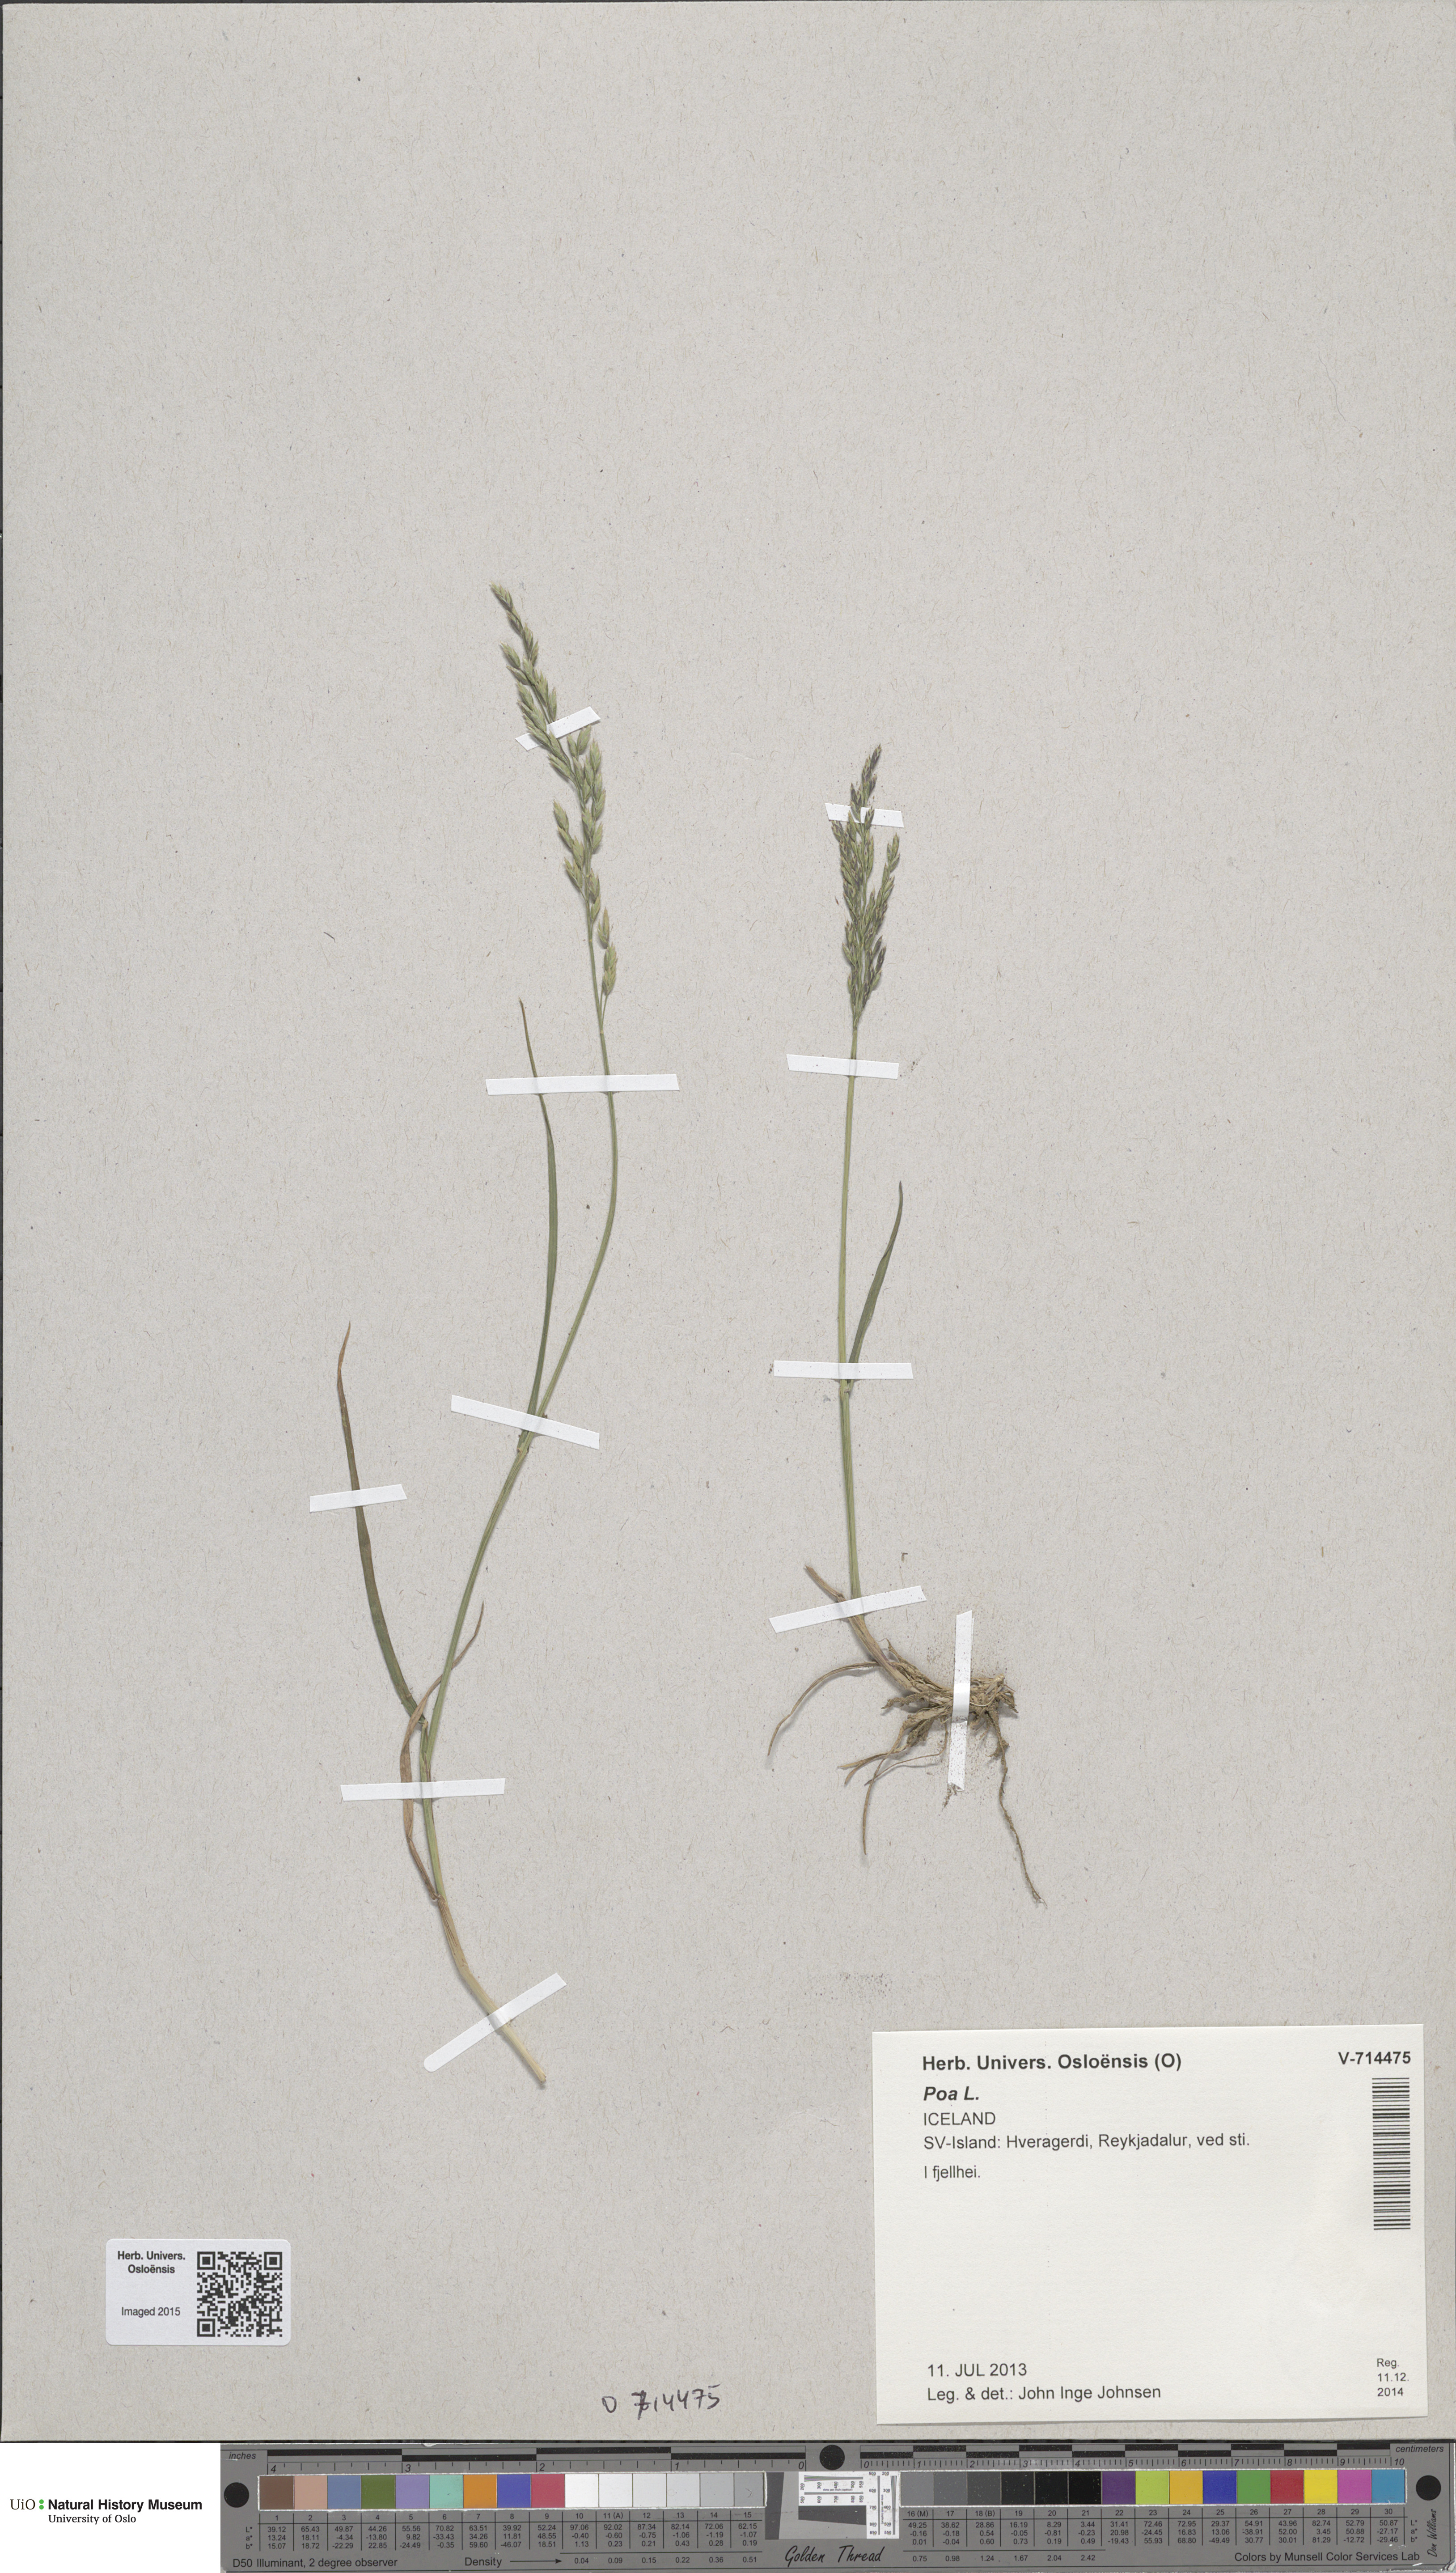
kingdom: Plantae
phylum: Tracheophyta
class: Liliopsida
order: Poales
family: Poaceae
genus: Poa
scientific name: Poa glauca
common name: Glaucous bluegrass
